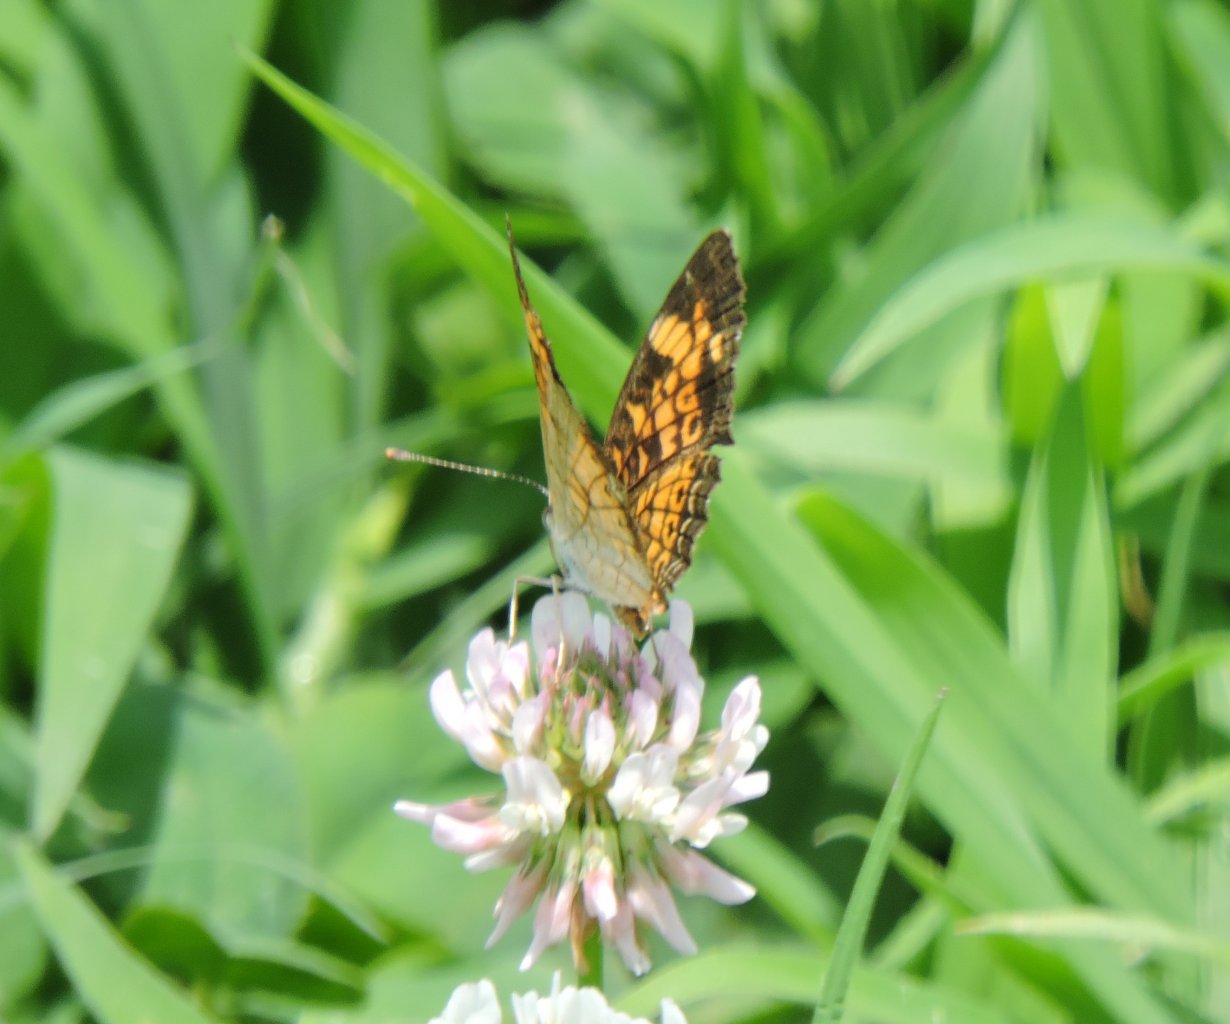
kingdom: Animalia
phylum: Arthropoda
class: Insecta
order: Lepidoptera
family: Nymphalidae
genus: Phyciodes
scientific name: Phyciodes tharos
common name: Pearl Crescent
